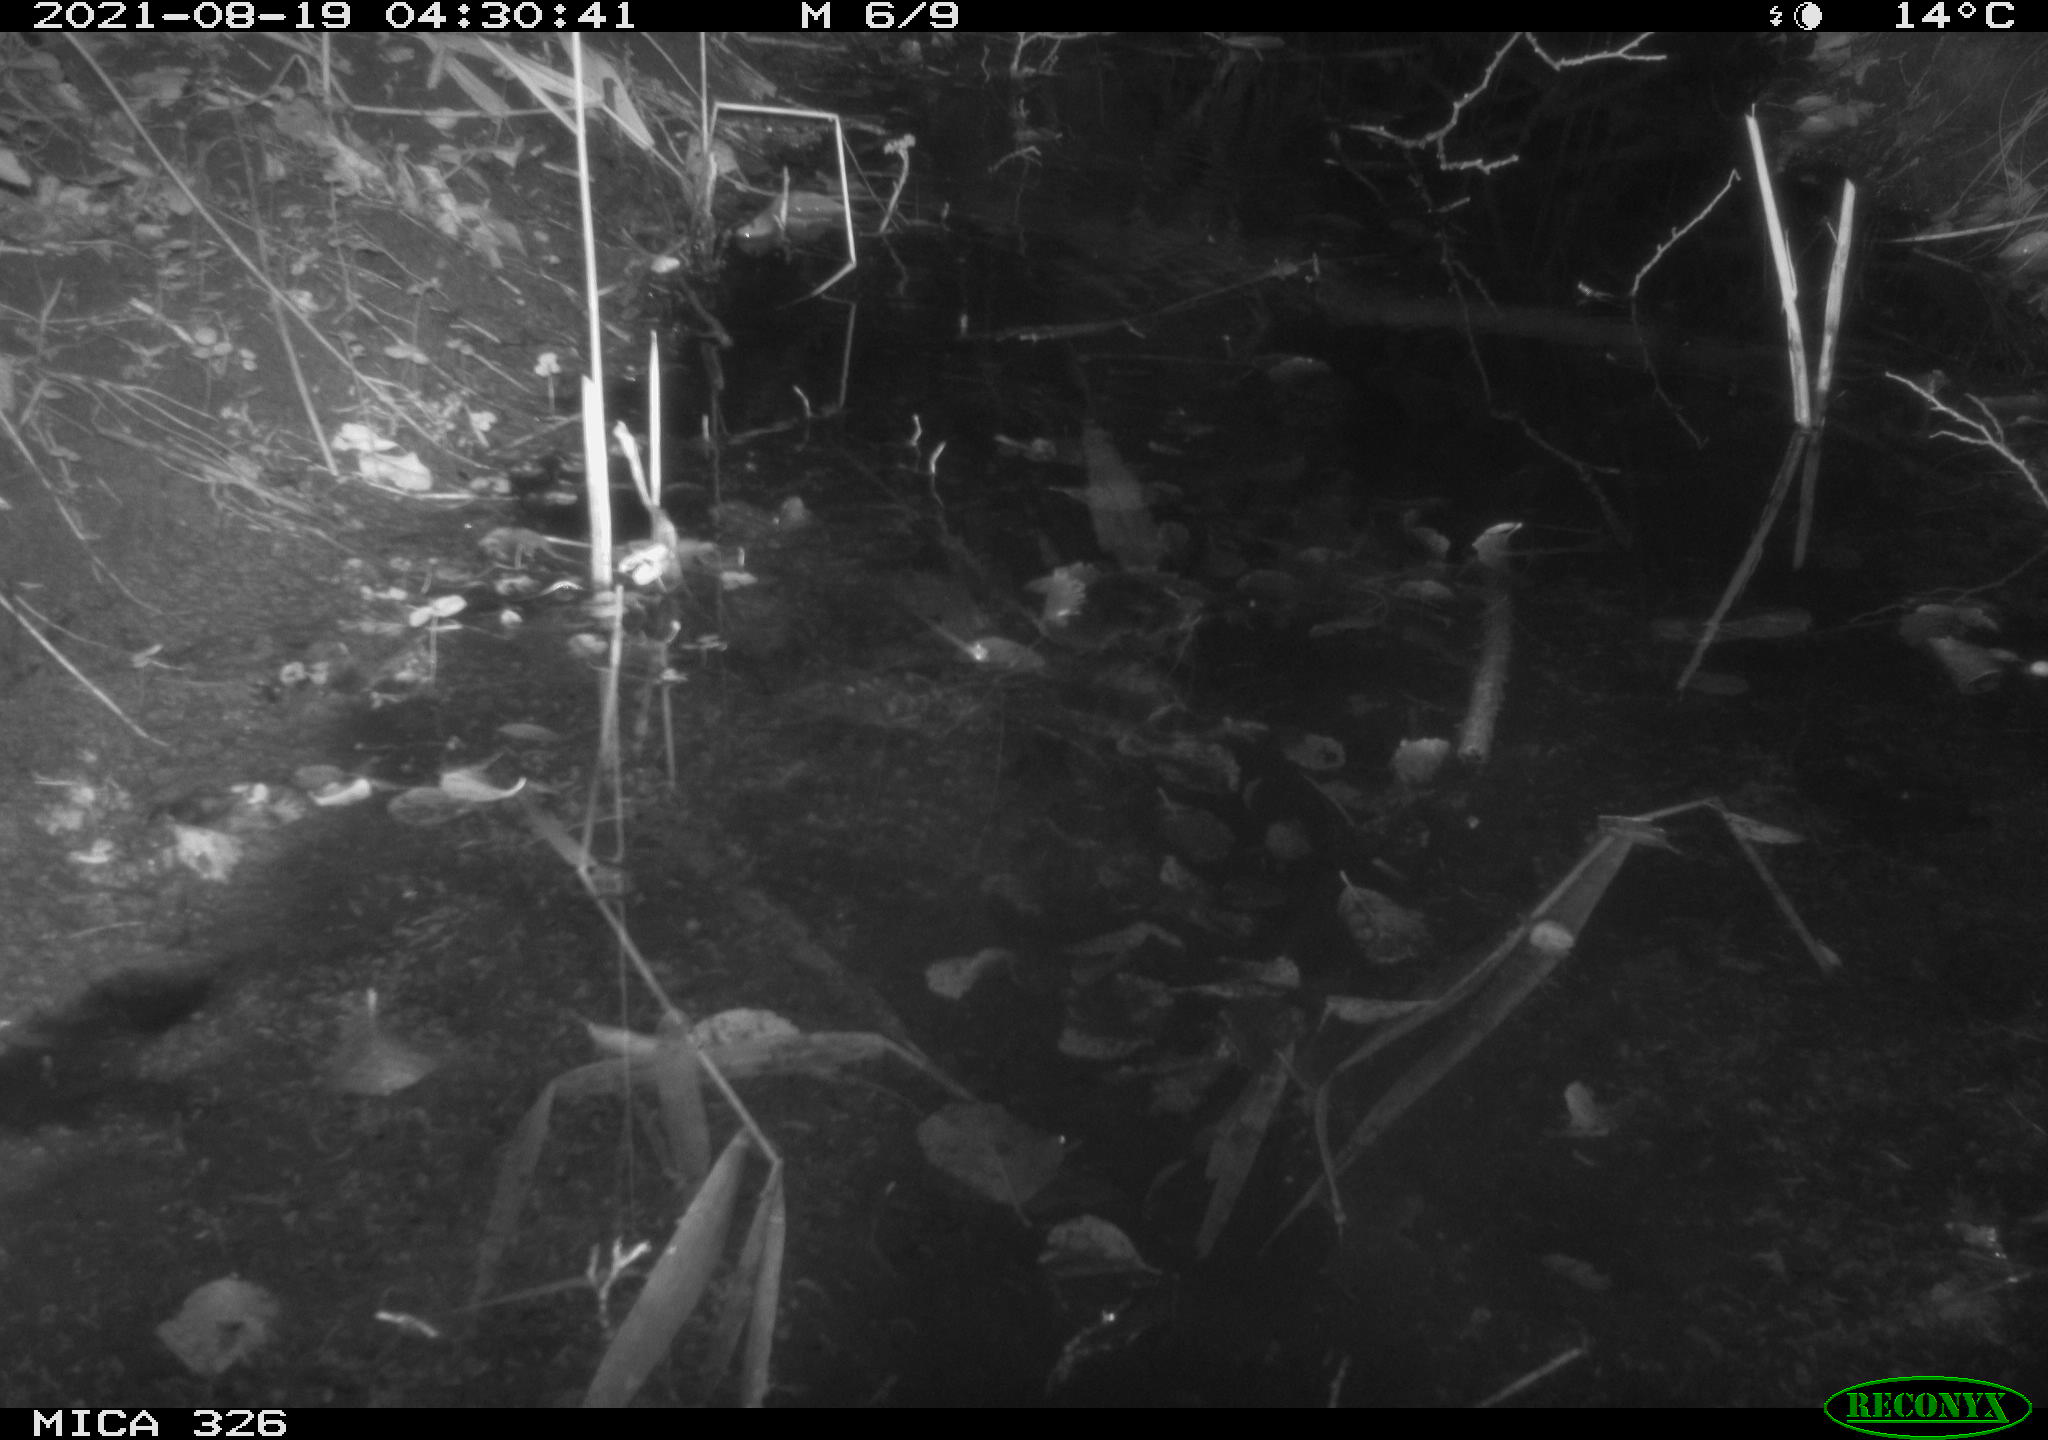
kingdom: Animalia
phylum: Chordata
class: Mammalia
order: Rodentia
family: Muridae
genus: Rattus
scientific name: Rattus norvegicus
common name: Brown rat
